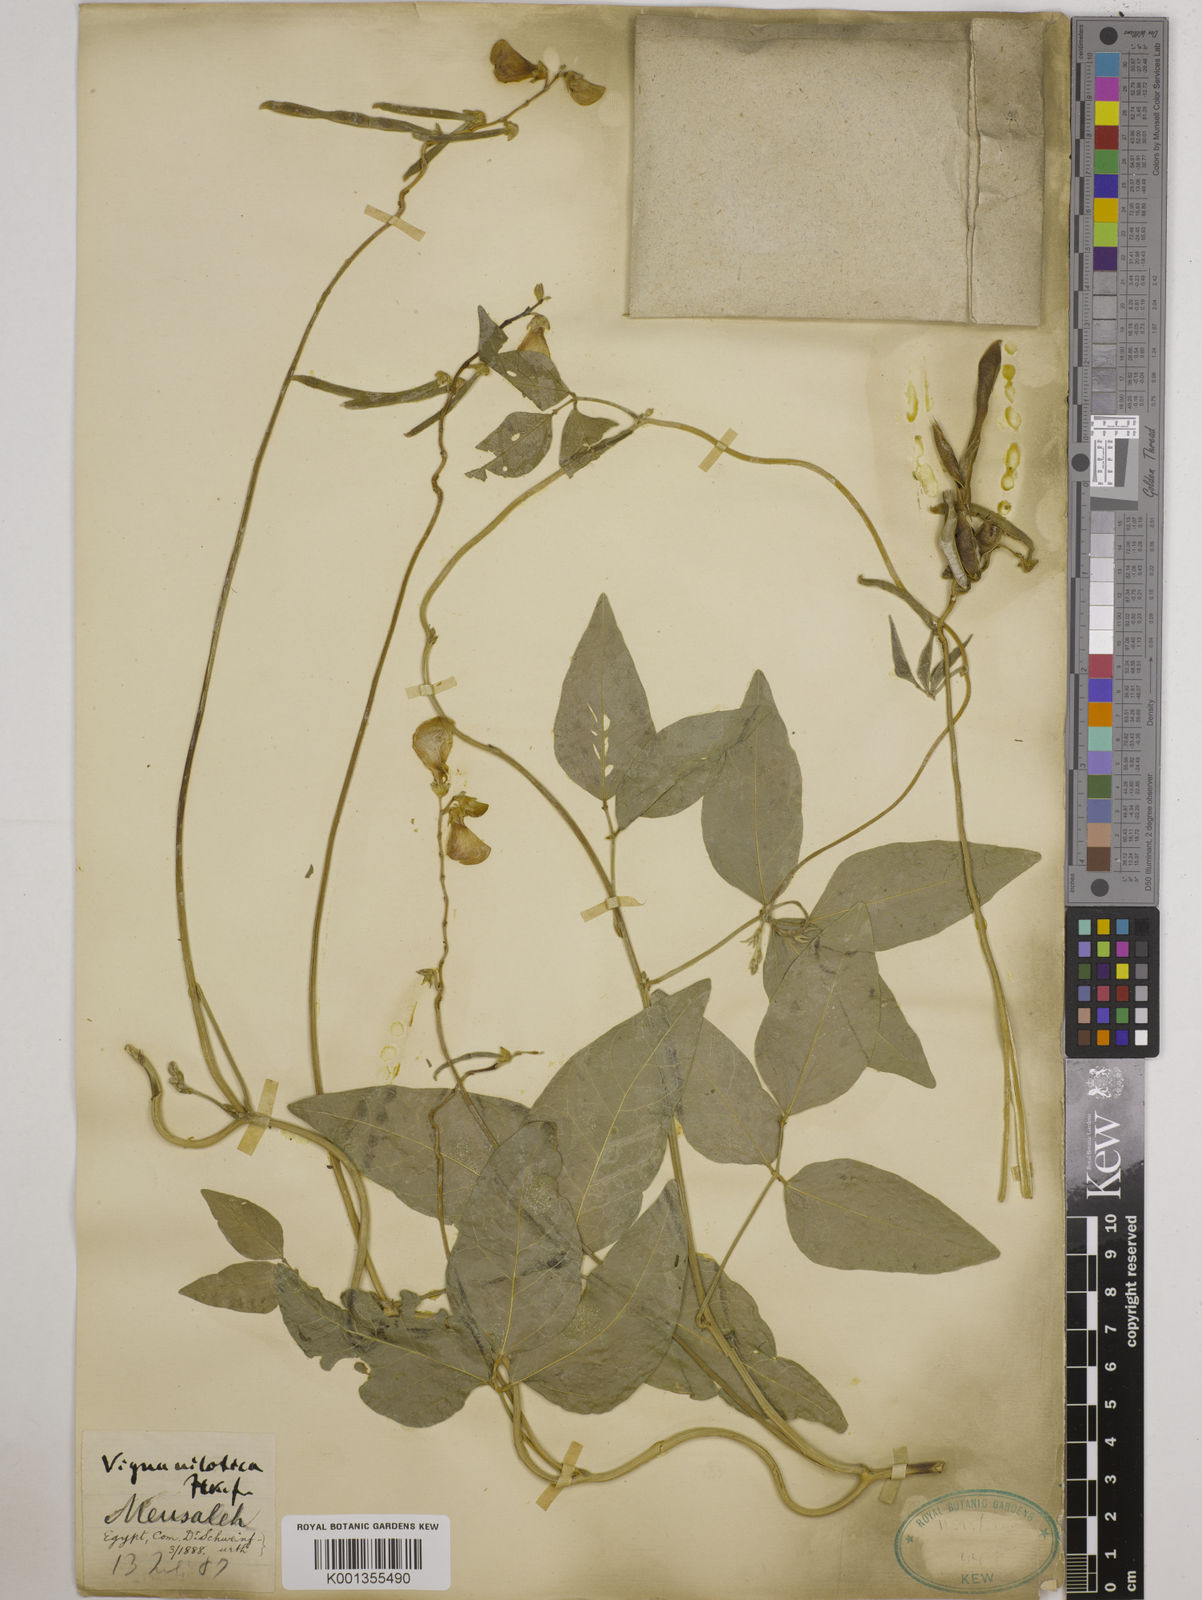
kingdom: Plantae
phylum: Tracheophyta
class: Magnoliopsida
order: Fabales
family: Fabaceae
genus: Vigna
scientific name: Vigna luteola
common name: Hairypod cowpea
